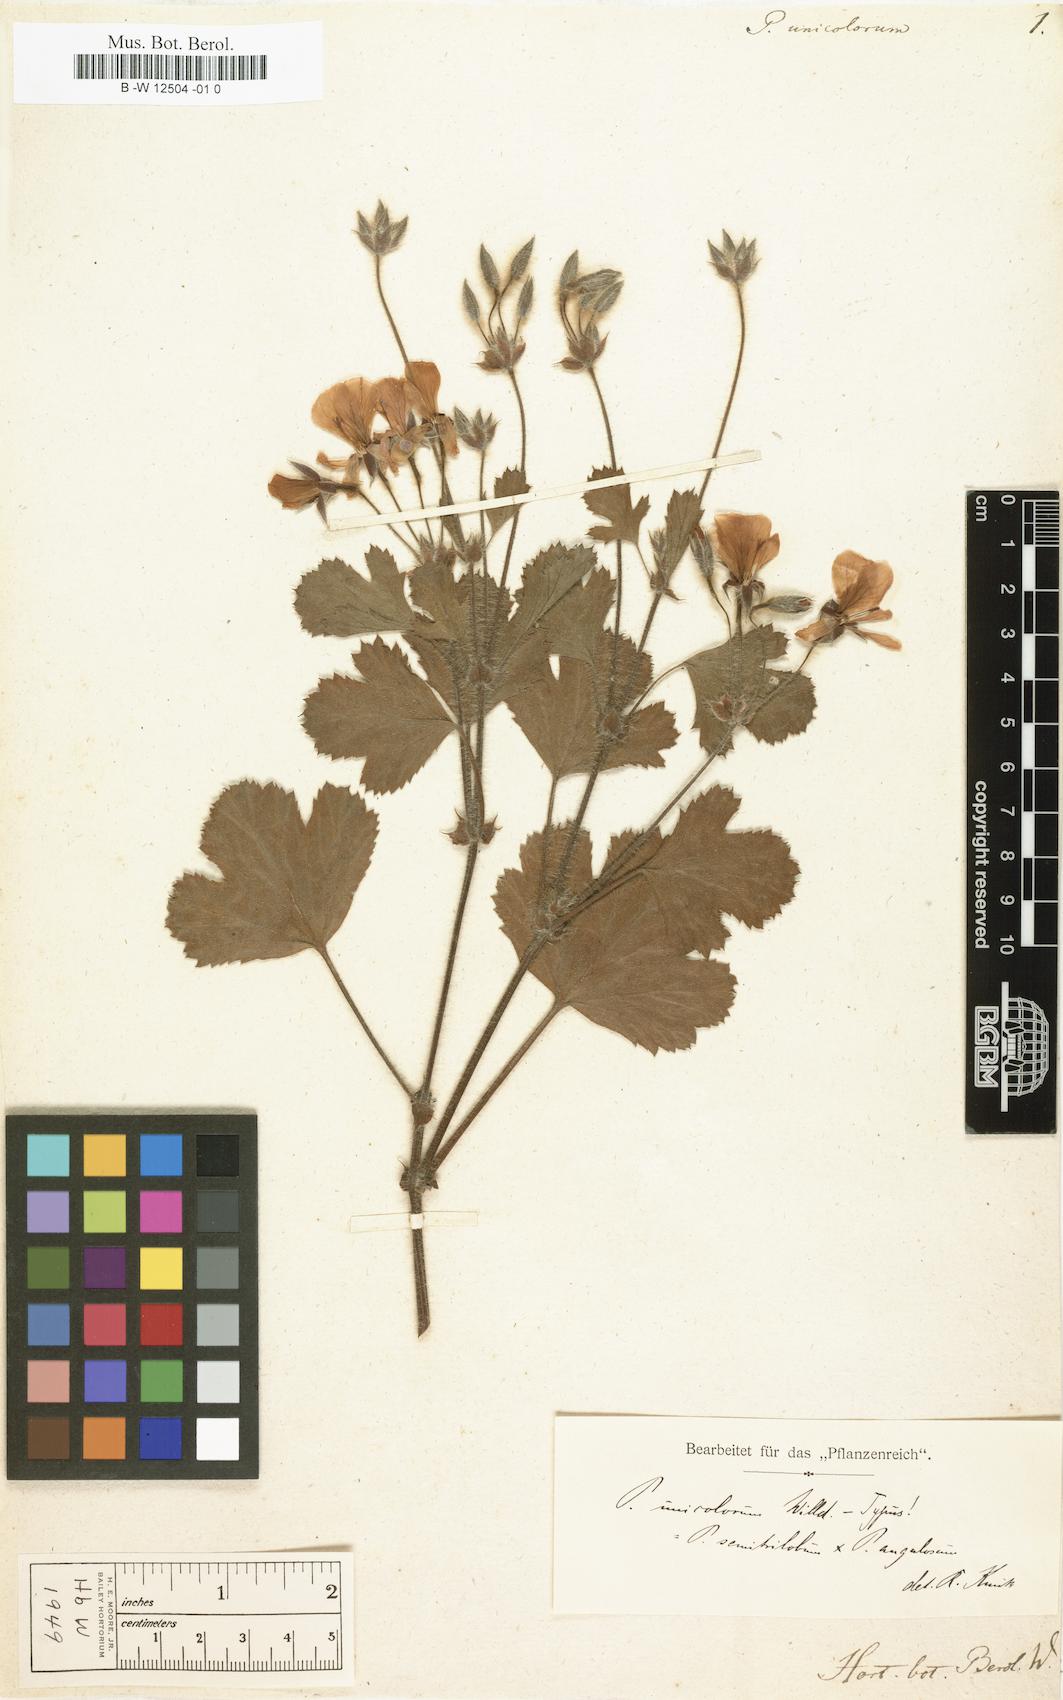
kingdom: Plantae
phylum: Tracheophyta
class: Magnoliopsida
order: Geraniales
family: Geraniaceae
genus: Pelargonium
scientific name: Pelargonium unicolorum
